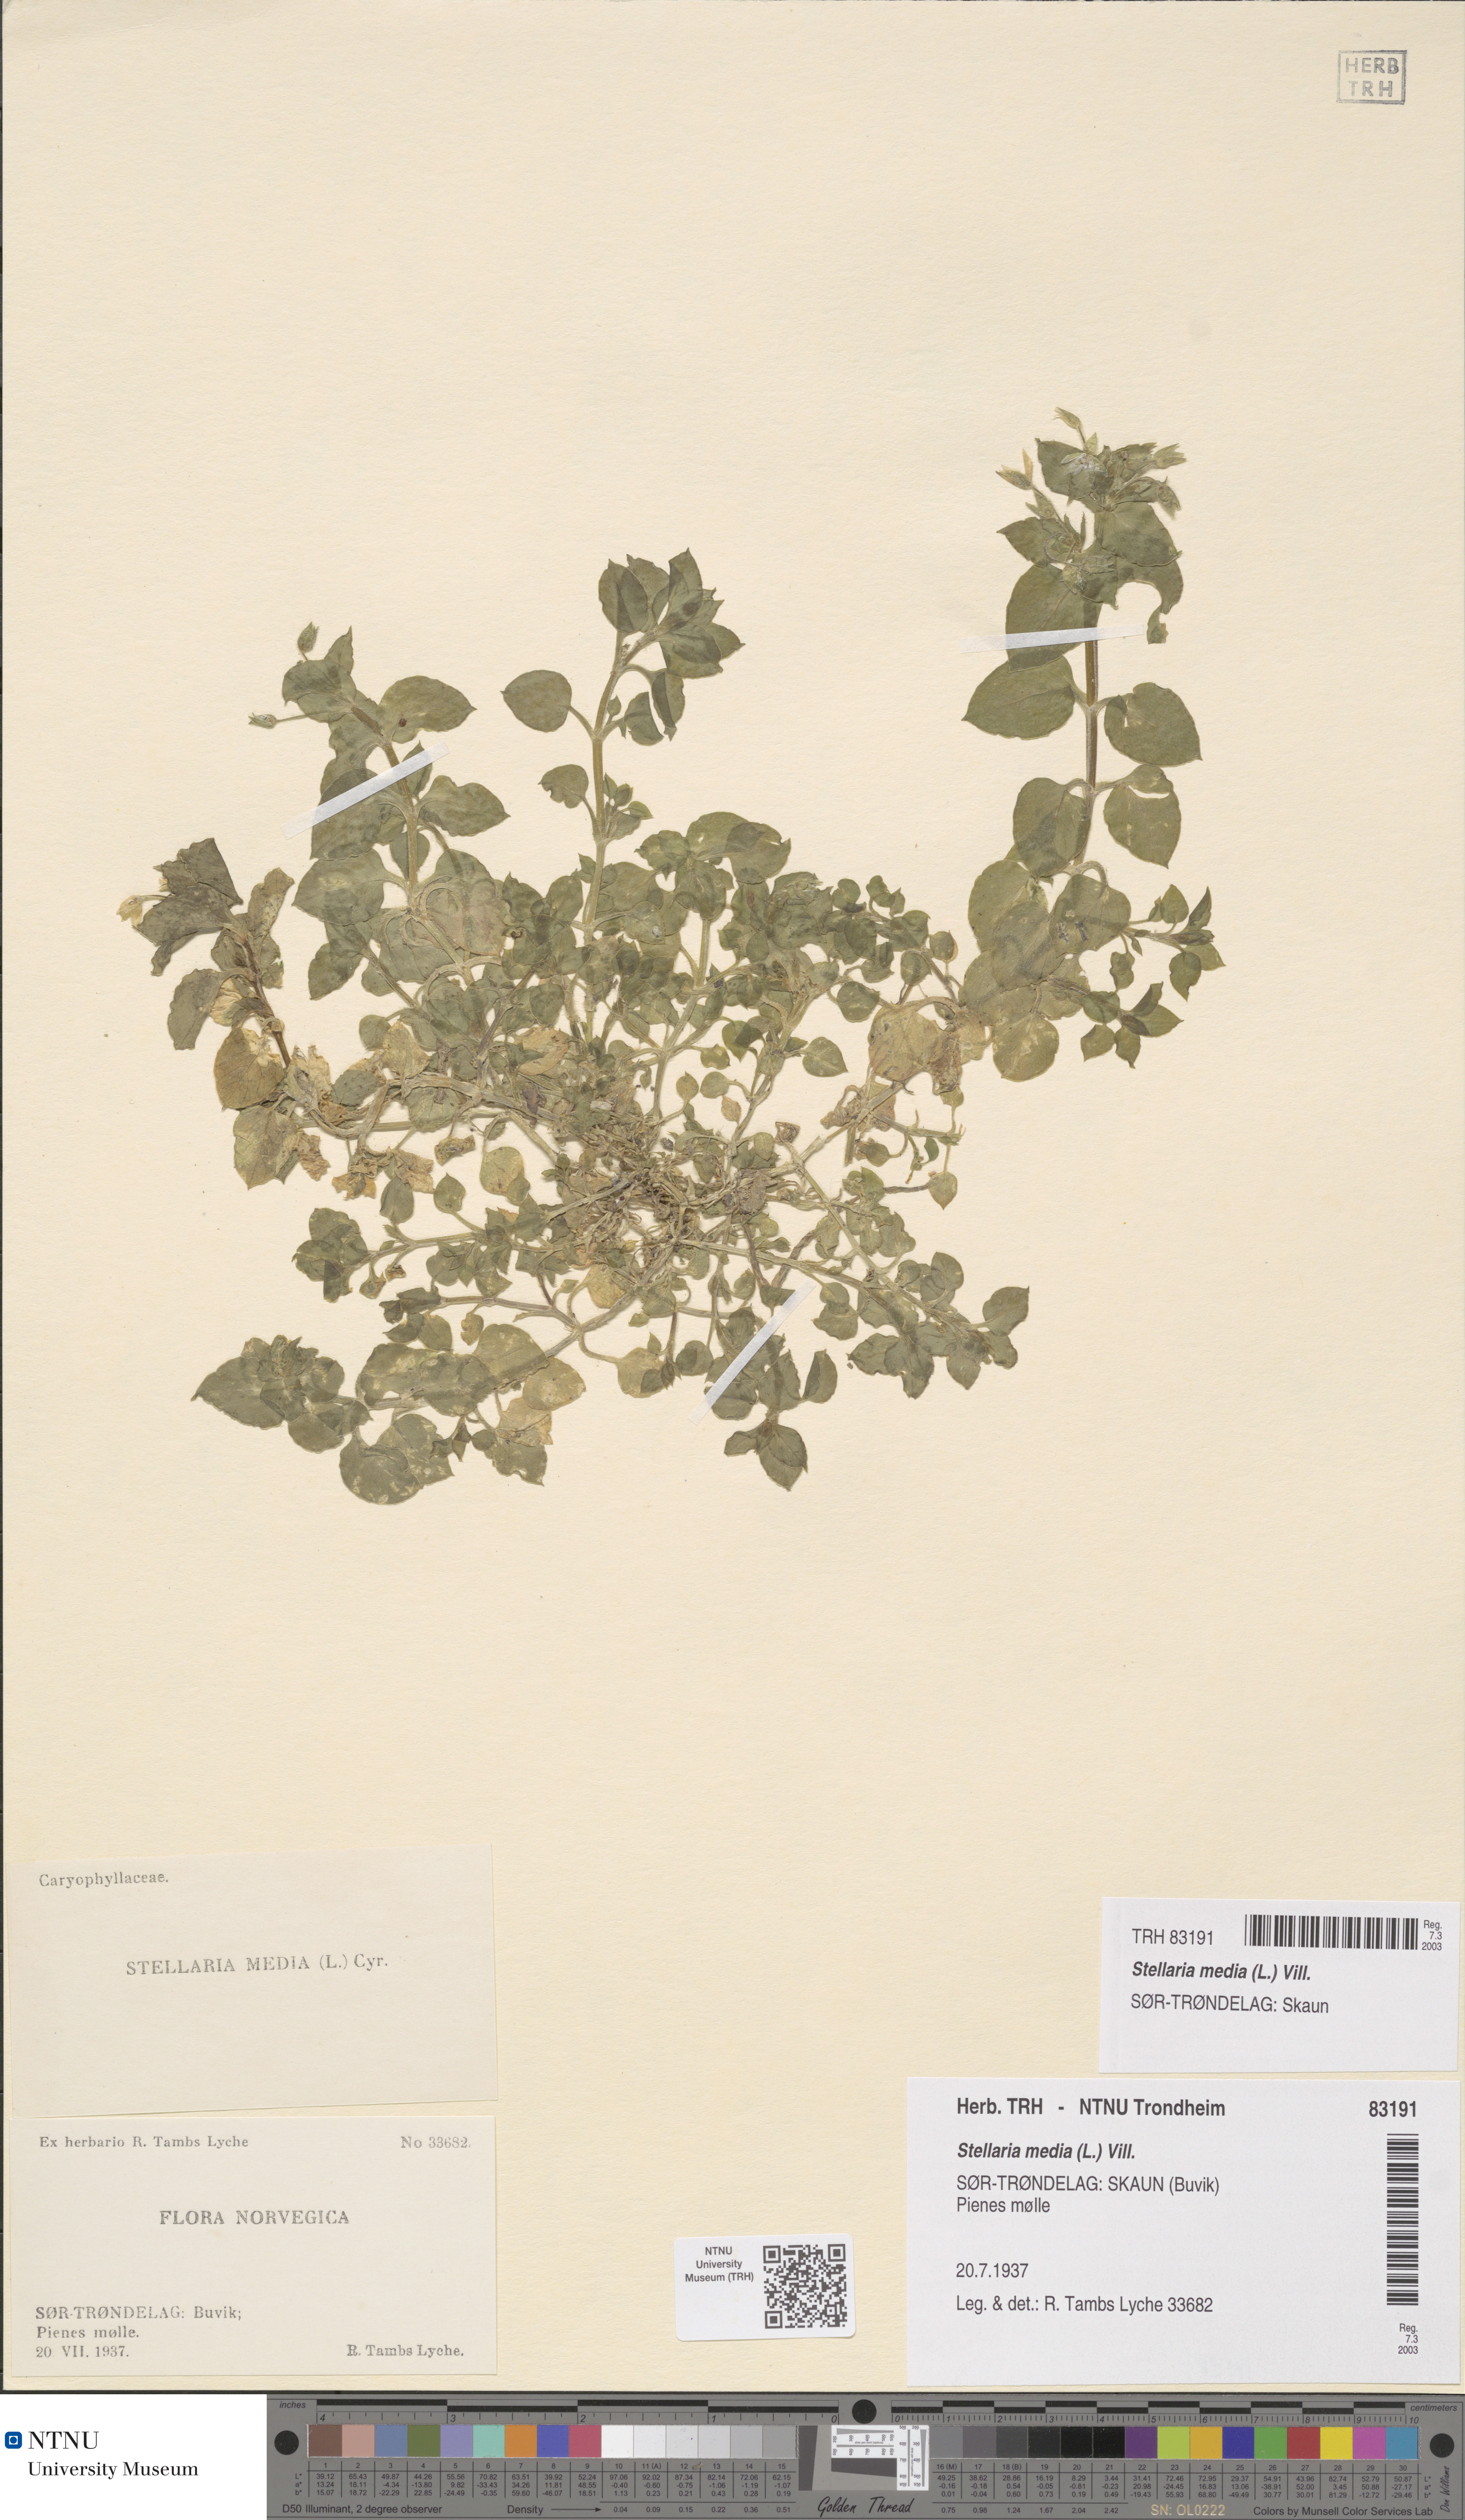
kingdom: Plantae
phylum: Tracheophyta
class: Magnoliopsida
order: Caryophyllales
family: Caryophyllaceae
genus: Stellaria
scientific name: Stellaria media
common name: Common chickweed
